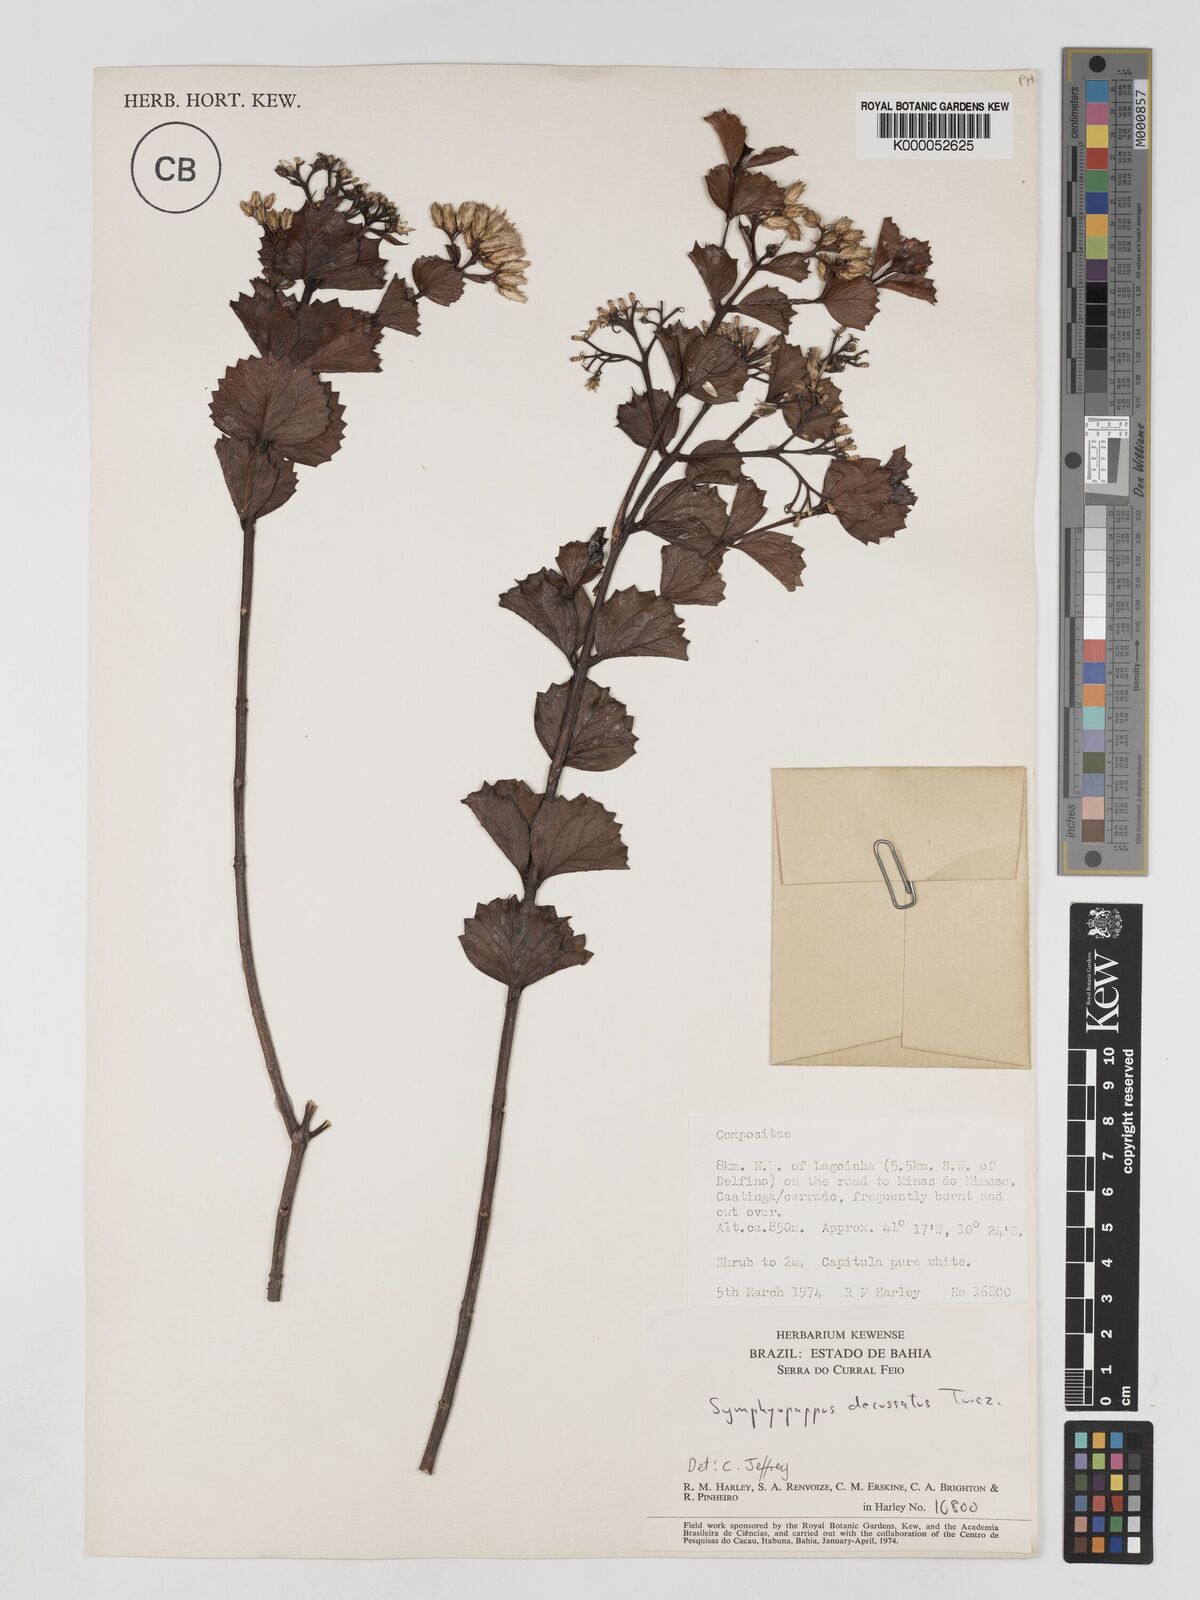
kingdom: Plantae
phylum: Tracheophyta
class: Magnoliopsida
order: Asterales
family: Asteraceae
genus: Symphyopappus
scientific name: Symphyopappus decussatus
